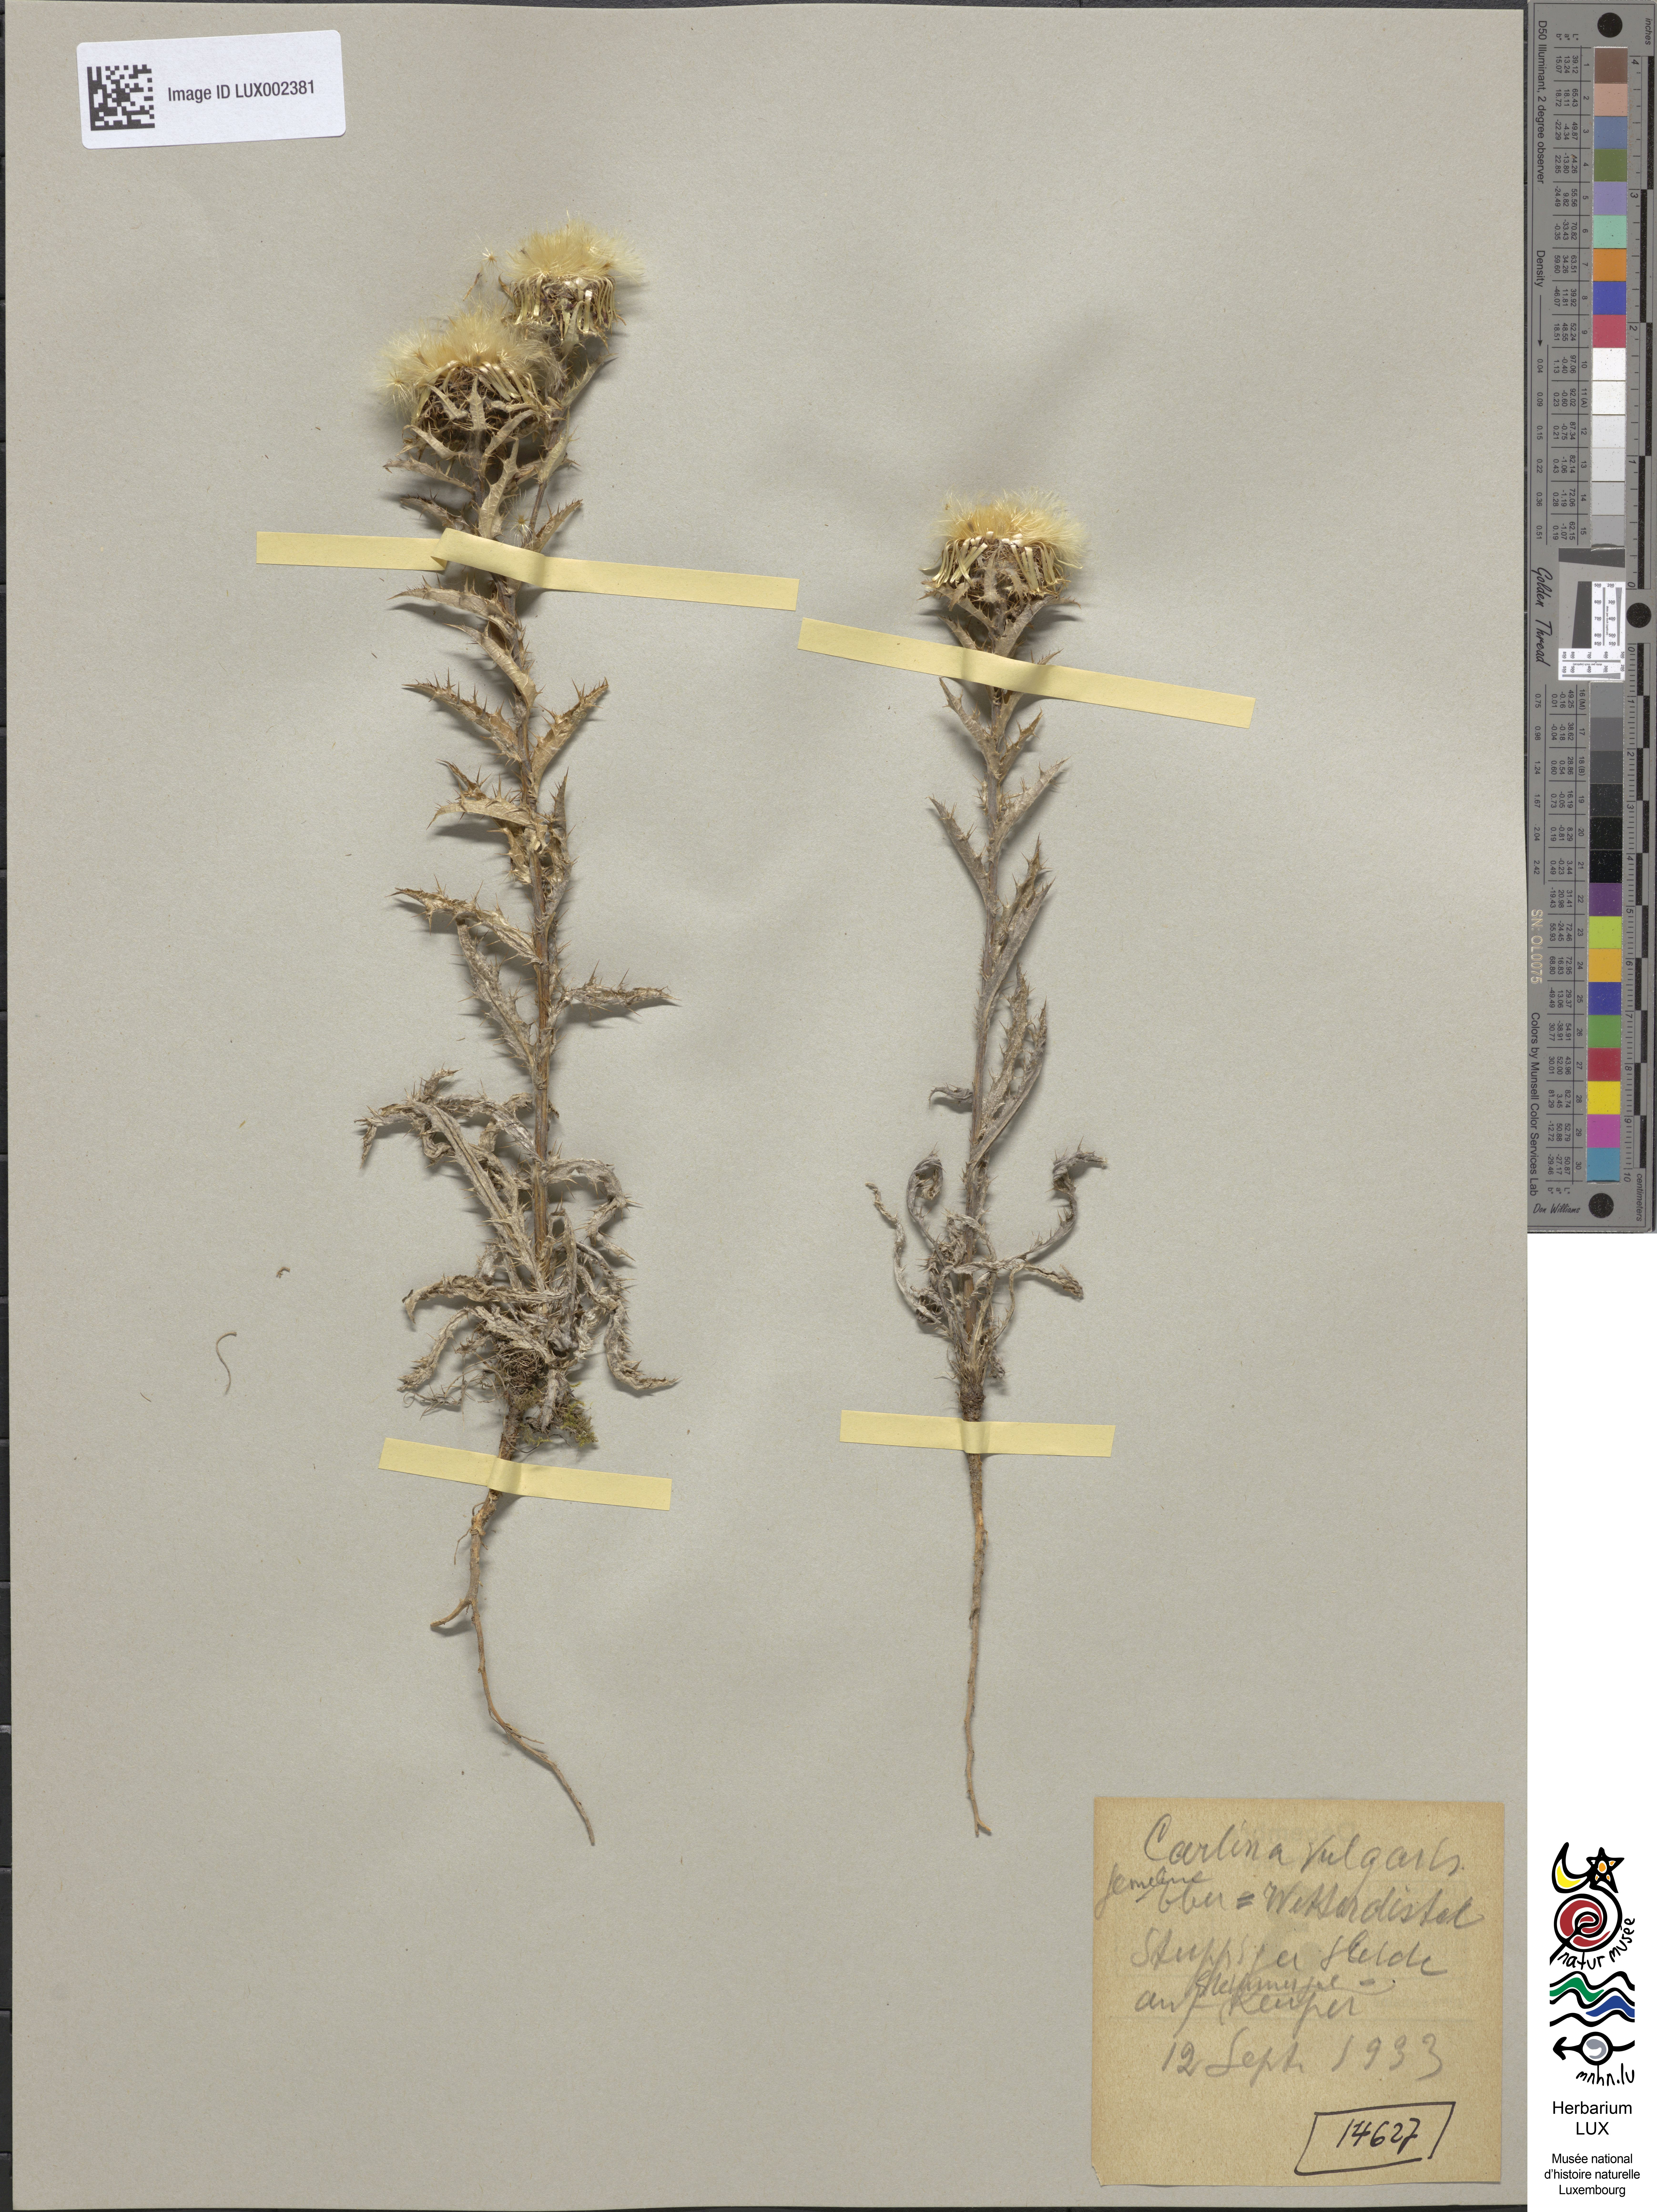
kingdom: Plantae
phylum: Tracheophyta
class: Magnoliopsida
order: Asterales
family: Asteraceae
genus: Carlina
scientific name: Carlina vulgaris
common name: Carline thistle
